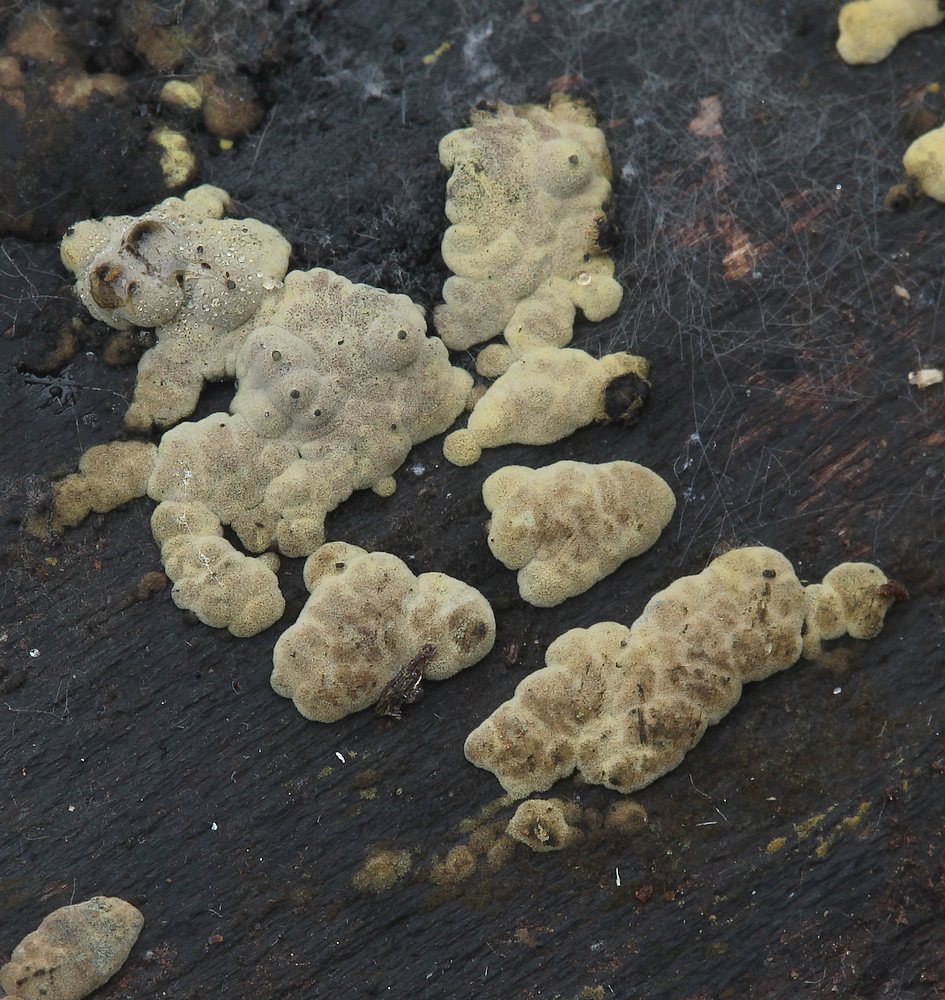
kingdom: Fungi
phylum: Ascomycota
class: Sordariomycetes
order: Xylariales
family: Hypoxylaceae
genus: Jackrogersella
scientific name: Jackrogersella multiformis
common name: foranderlig kulbær
